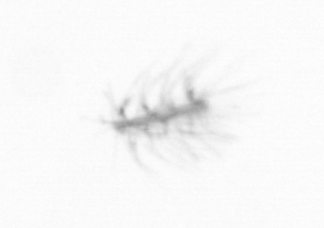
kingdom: Chromista
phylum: Ochrophyta
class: Bacillariophyceae
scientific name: Bacillariophyceae
